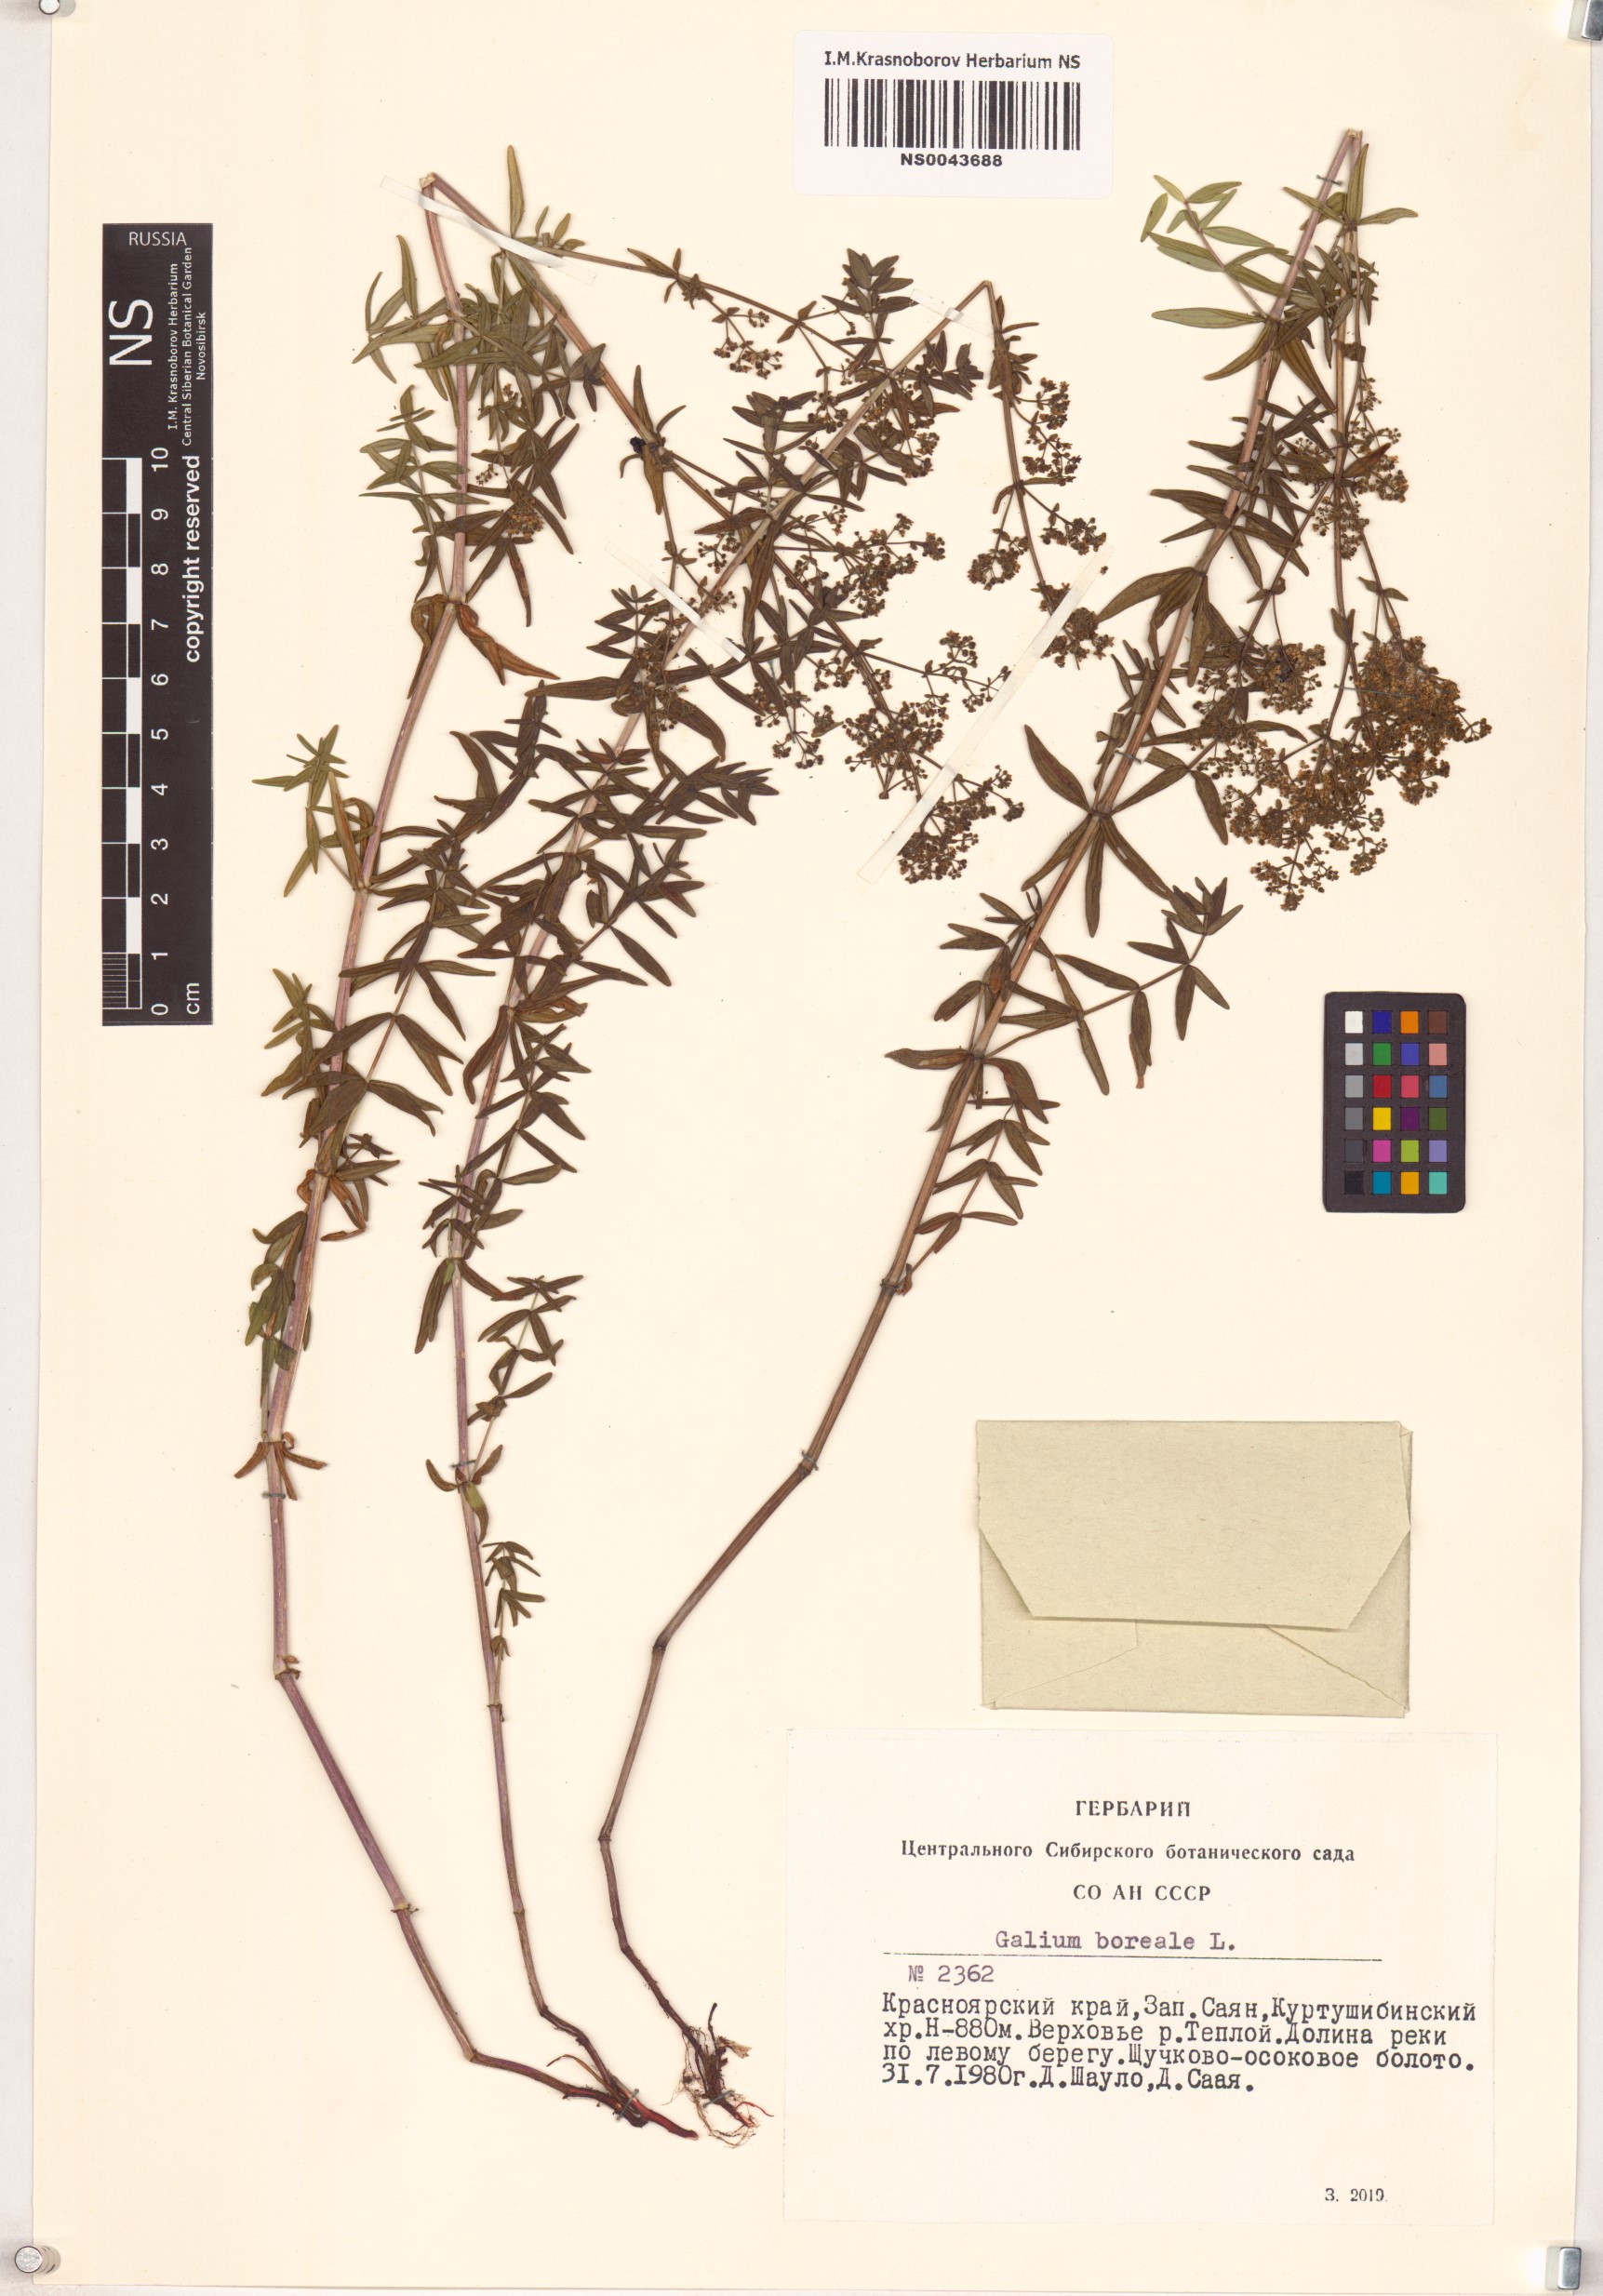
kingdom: Plantae
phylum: Tracheophyta
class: Magnoliopsida
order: Gentianales
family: Rubiaceae
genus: Galium
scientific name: Galium boreale
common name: Northern bedstraw
